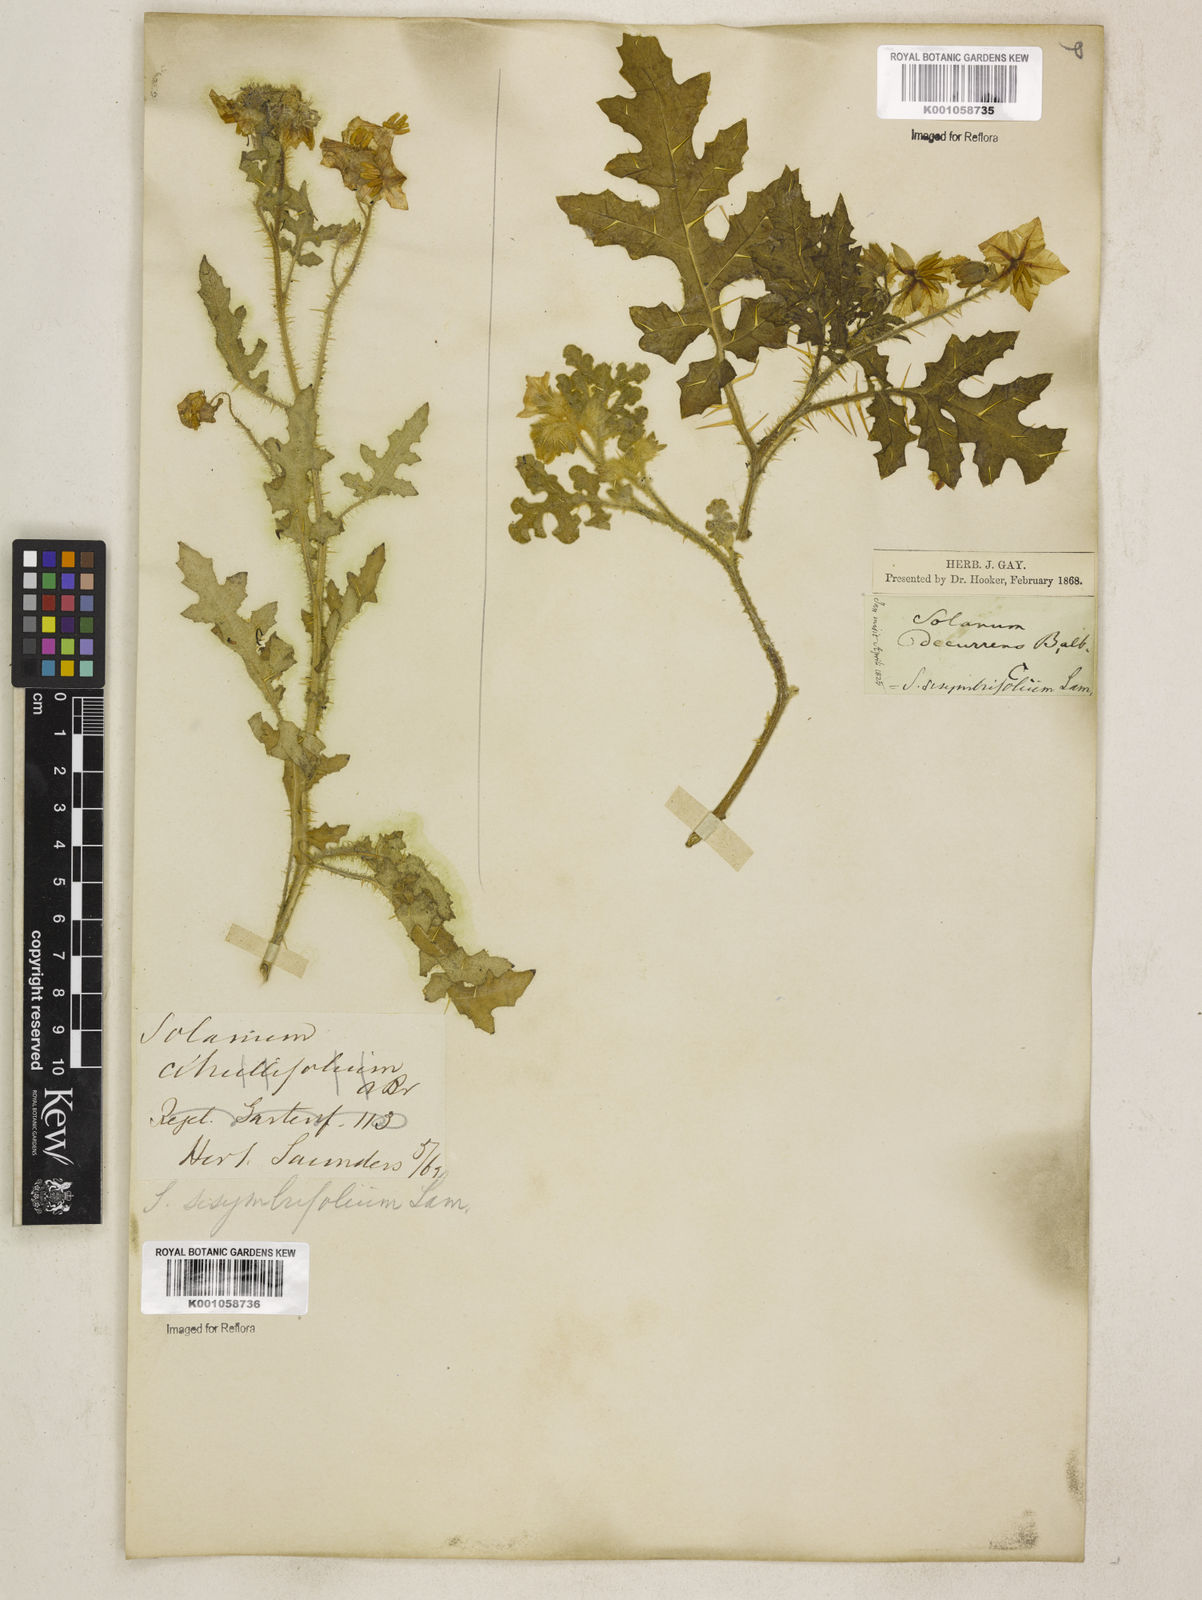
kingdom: Plantae
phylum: Tracheophyta
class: Magnoliopsida
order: Solanales
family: Solanaceae
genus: Solanum
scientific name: Solanum sisymbriifolium
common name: Red buffalo-bur
